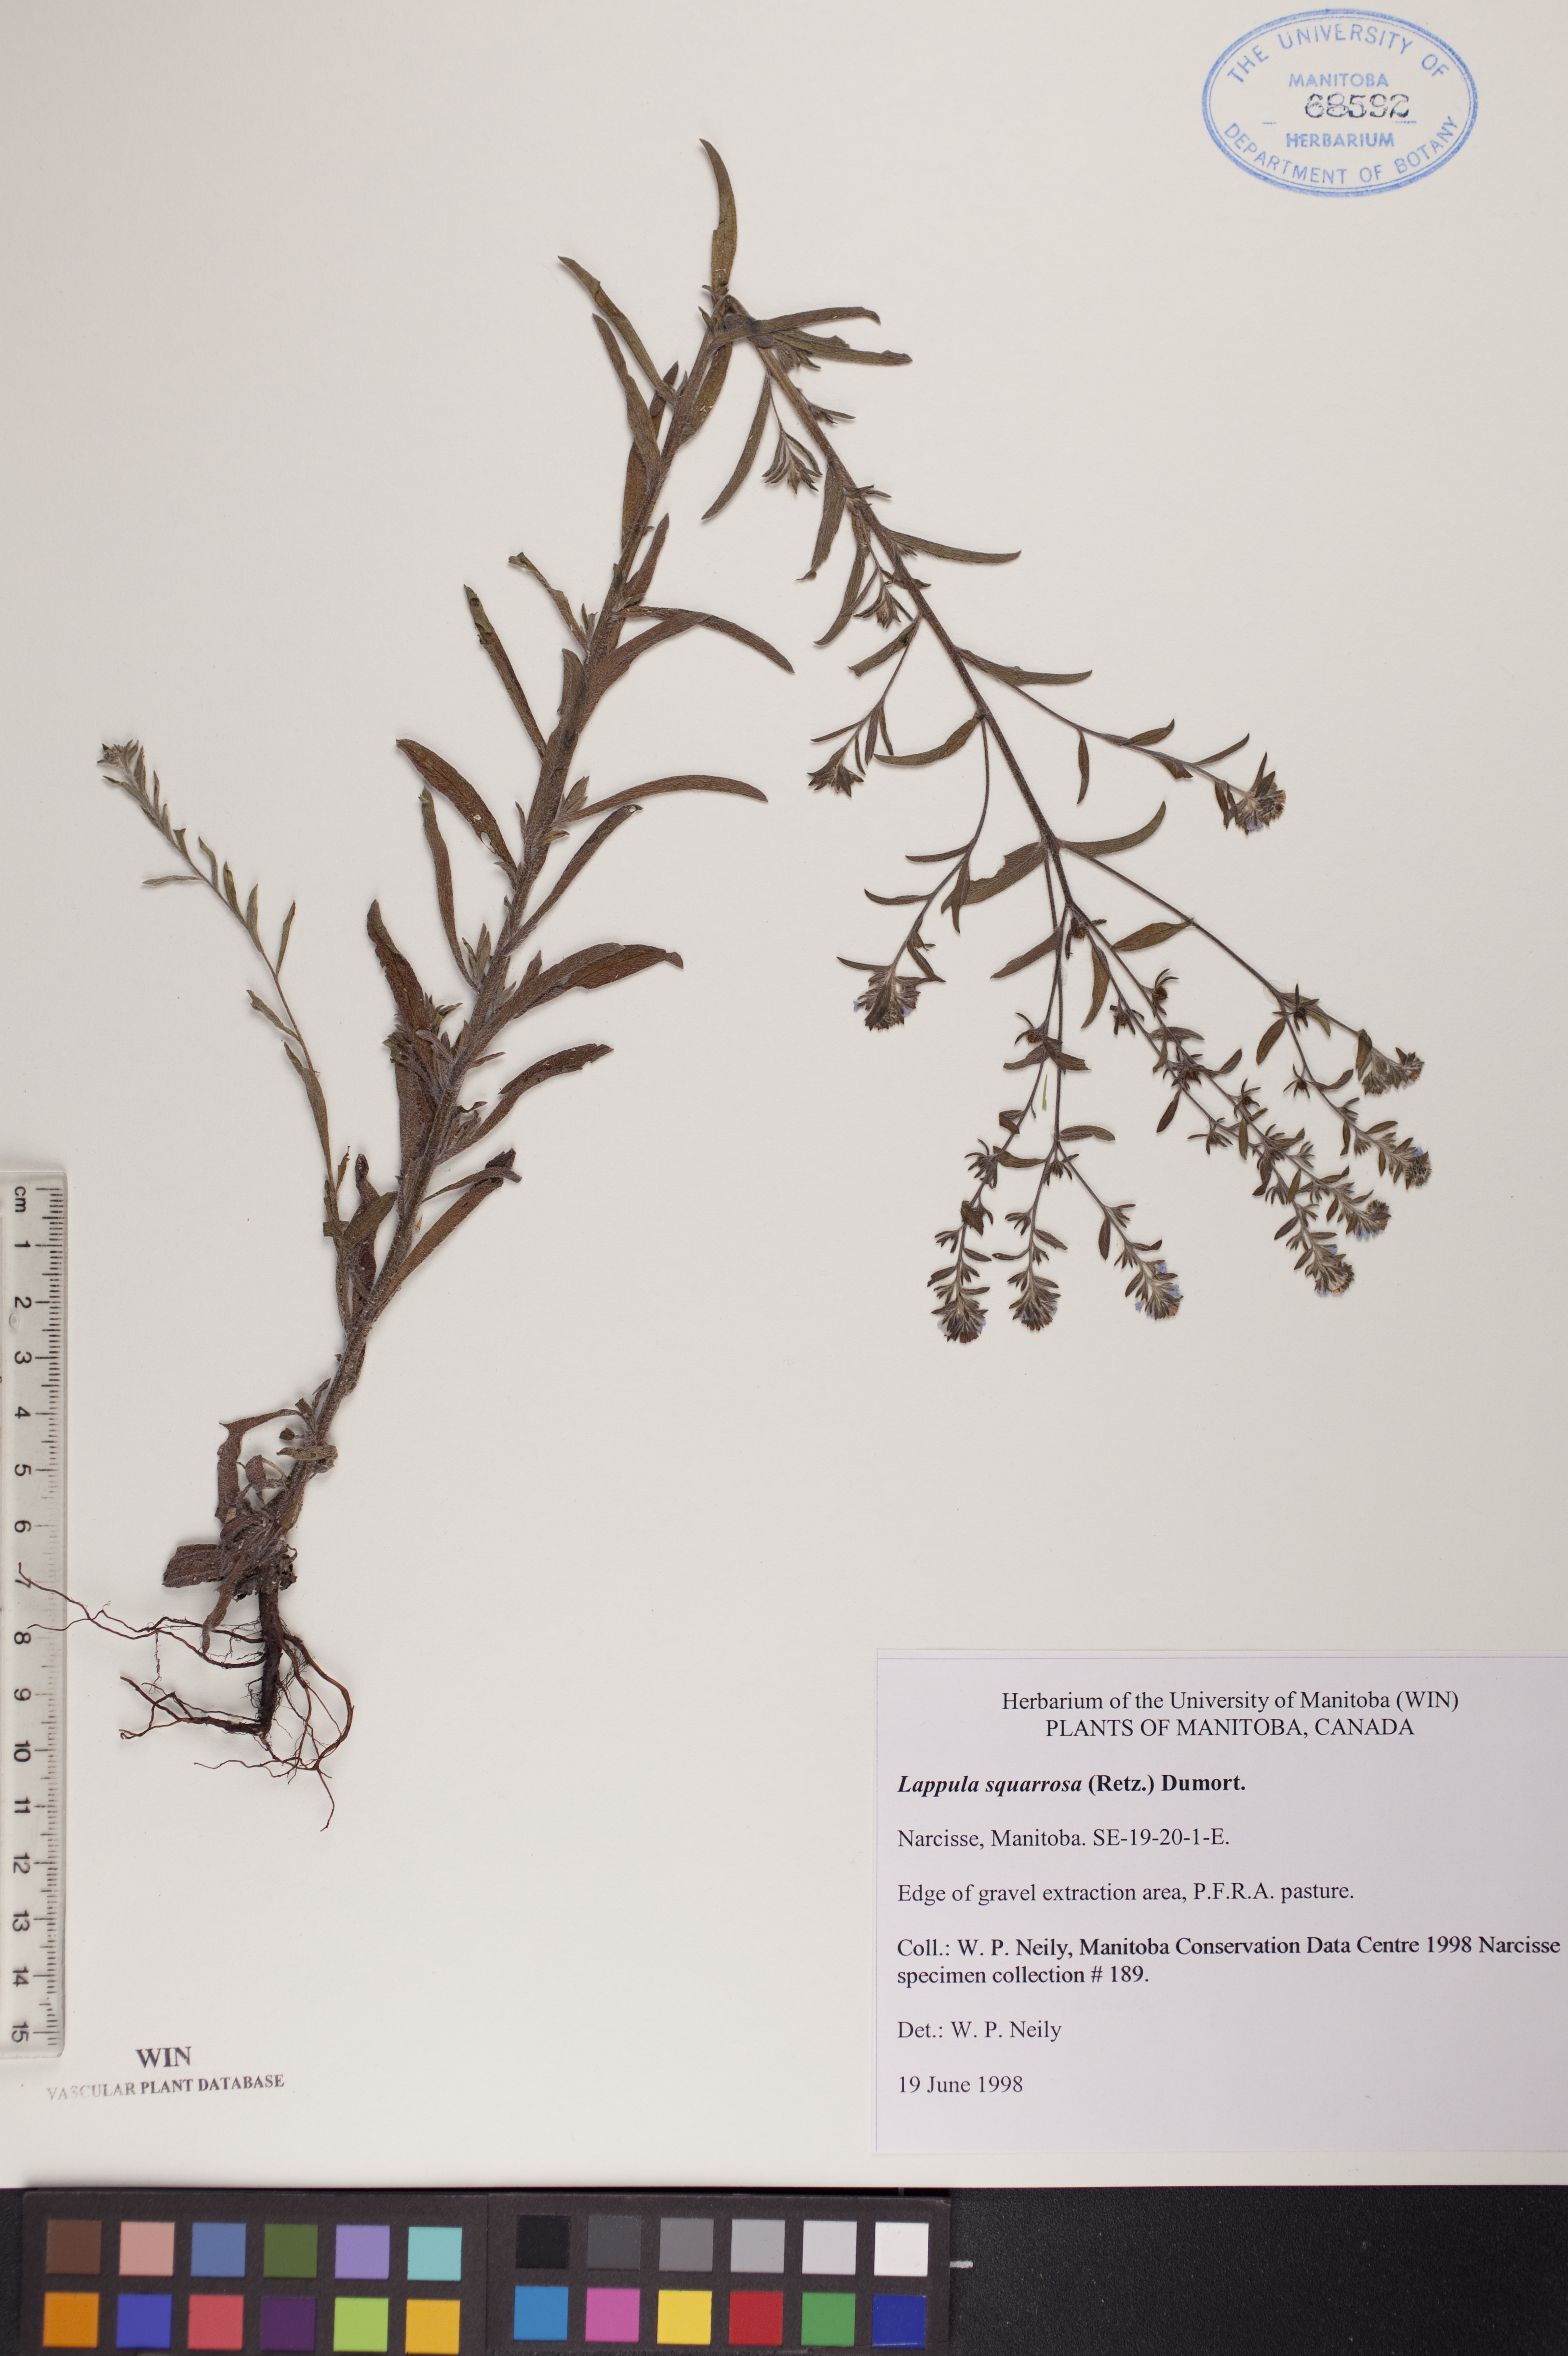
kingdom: Plantae
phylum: Tracheophyta
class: Magnoliopsida
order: Boraginales
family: Boraginaceae
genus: Lappula
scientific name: Lappula squarrosa
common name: European stickseed
